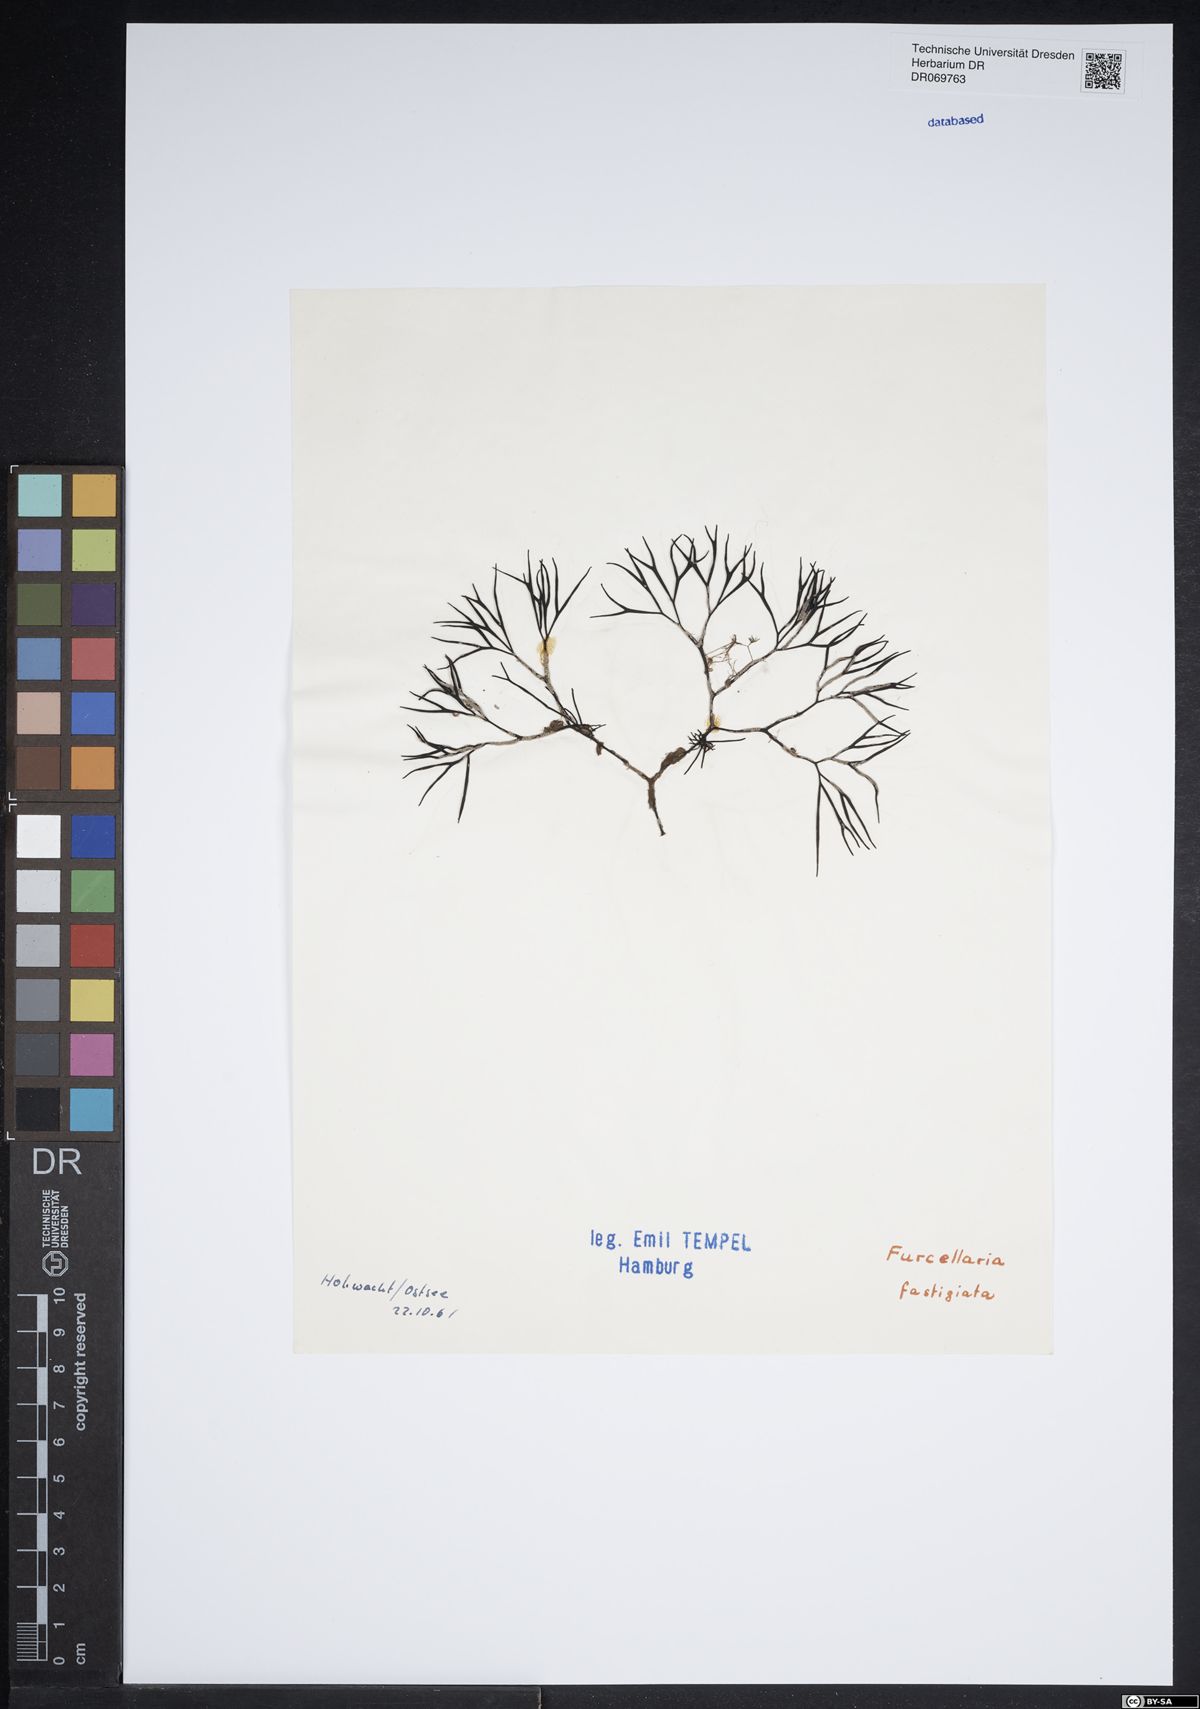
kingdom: Plantae
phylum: Rhodophyta
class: Florideophyceae
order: Gigartinales
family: Furcellariaceae
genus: Furcellaria
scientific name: Furcellaria lumbricalis
